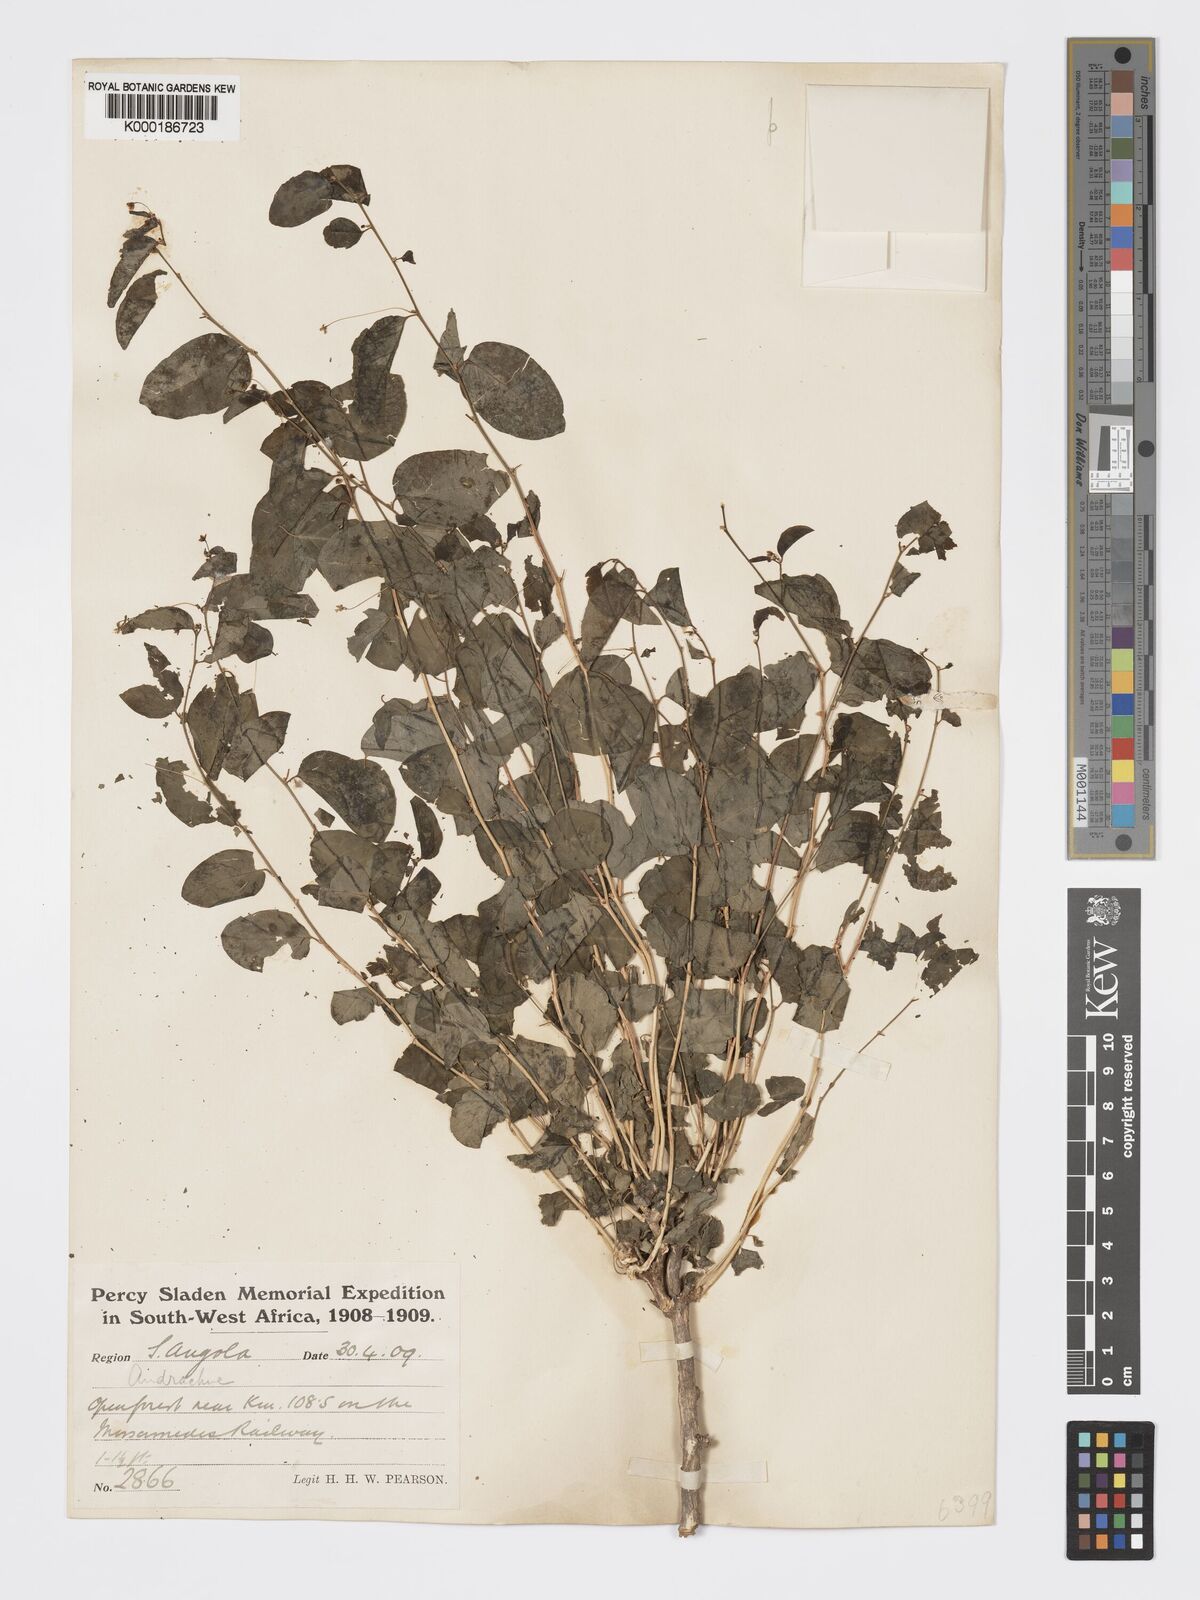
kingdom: Plantae
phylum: Tracheophyta
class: Magnoliopsida
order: Malpighiales
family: Phyllanthaceae
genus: Meineckia
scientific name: Meineckia phyllanthoides
